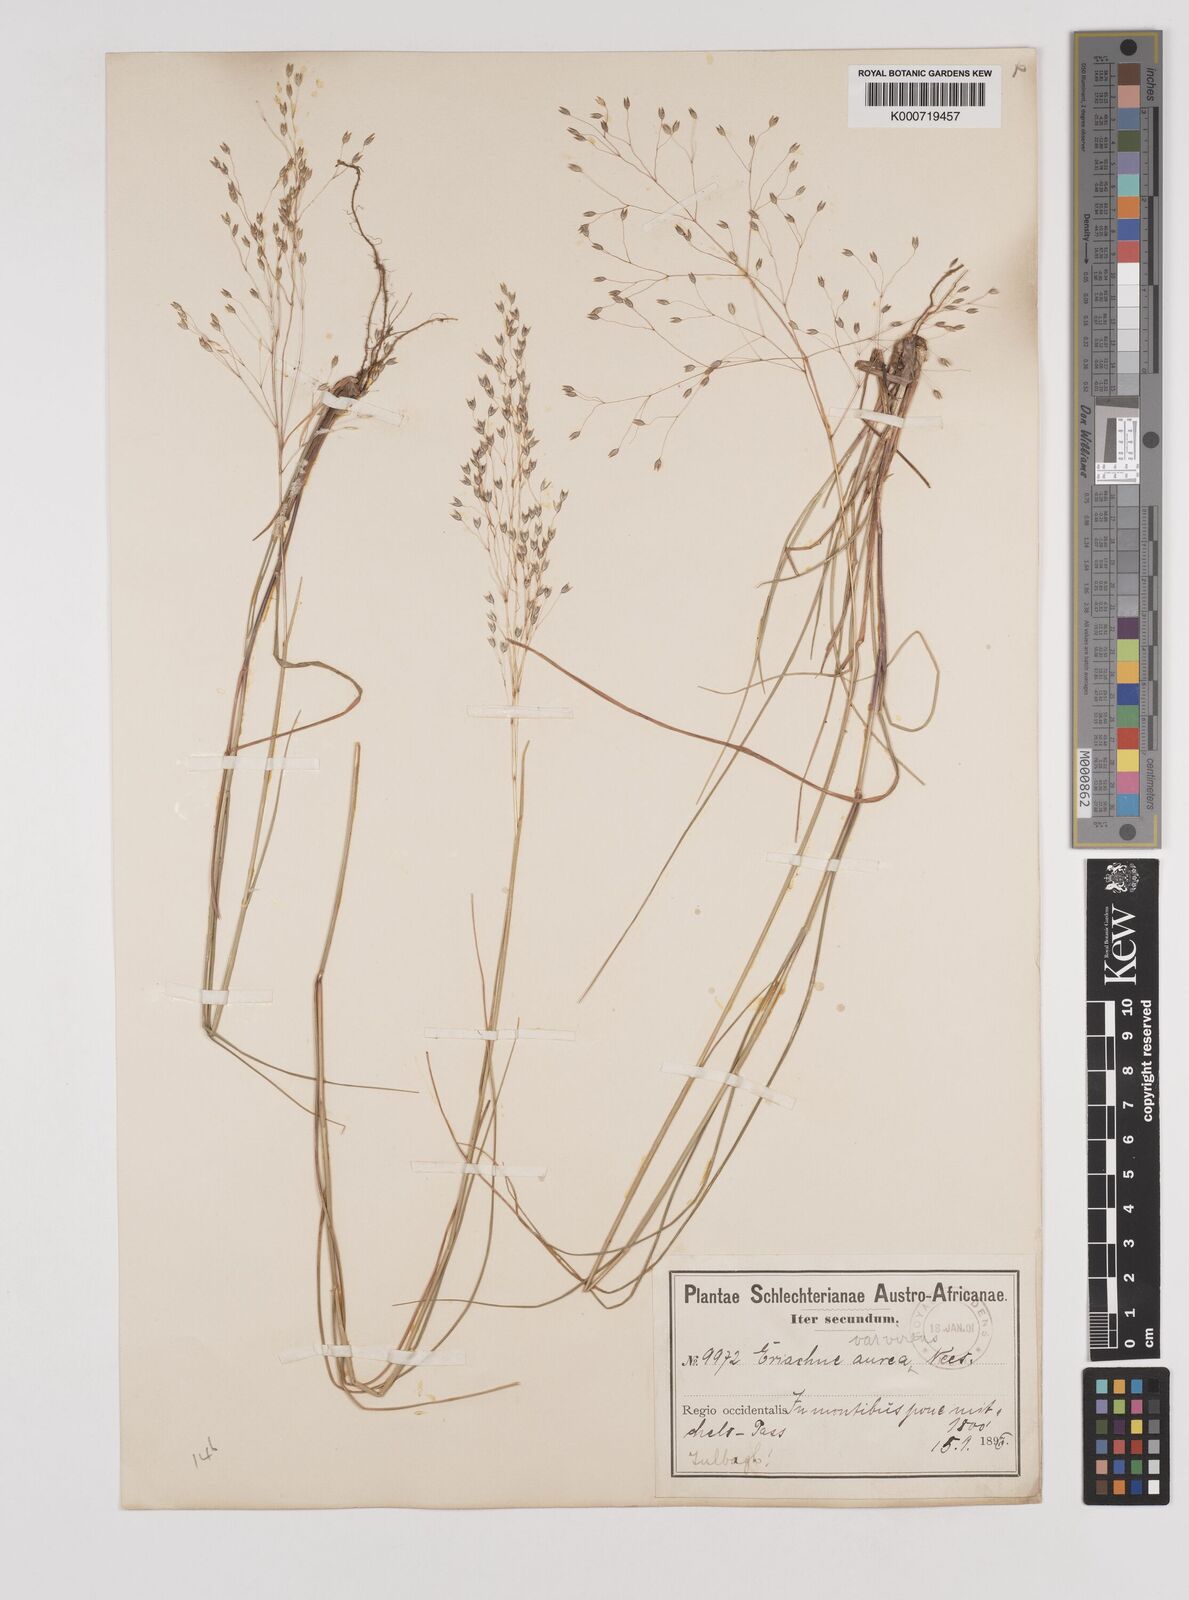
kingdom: Plantae
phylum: Tracheophyta
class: Liliopsida
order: Poales
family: Poaceae
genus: Pentameris
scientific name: Pentameris aurea
